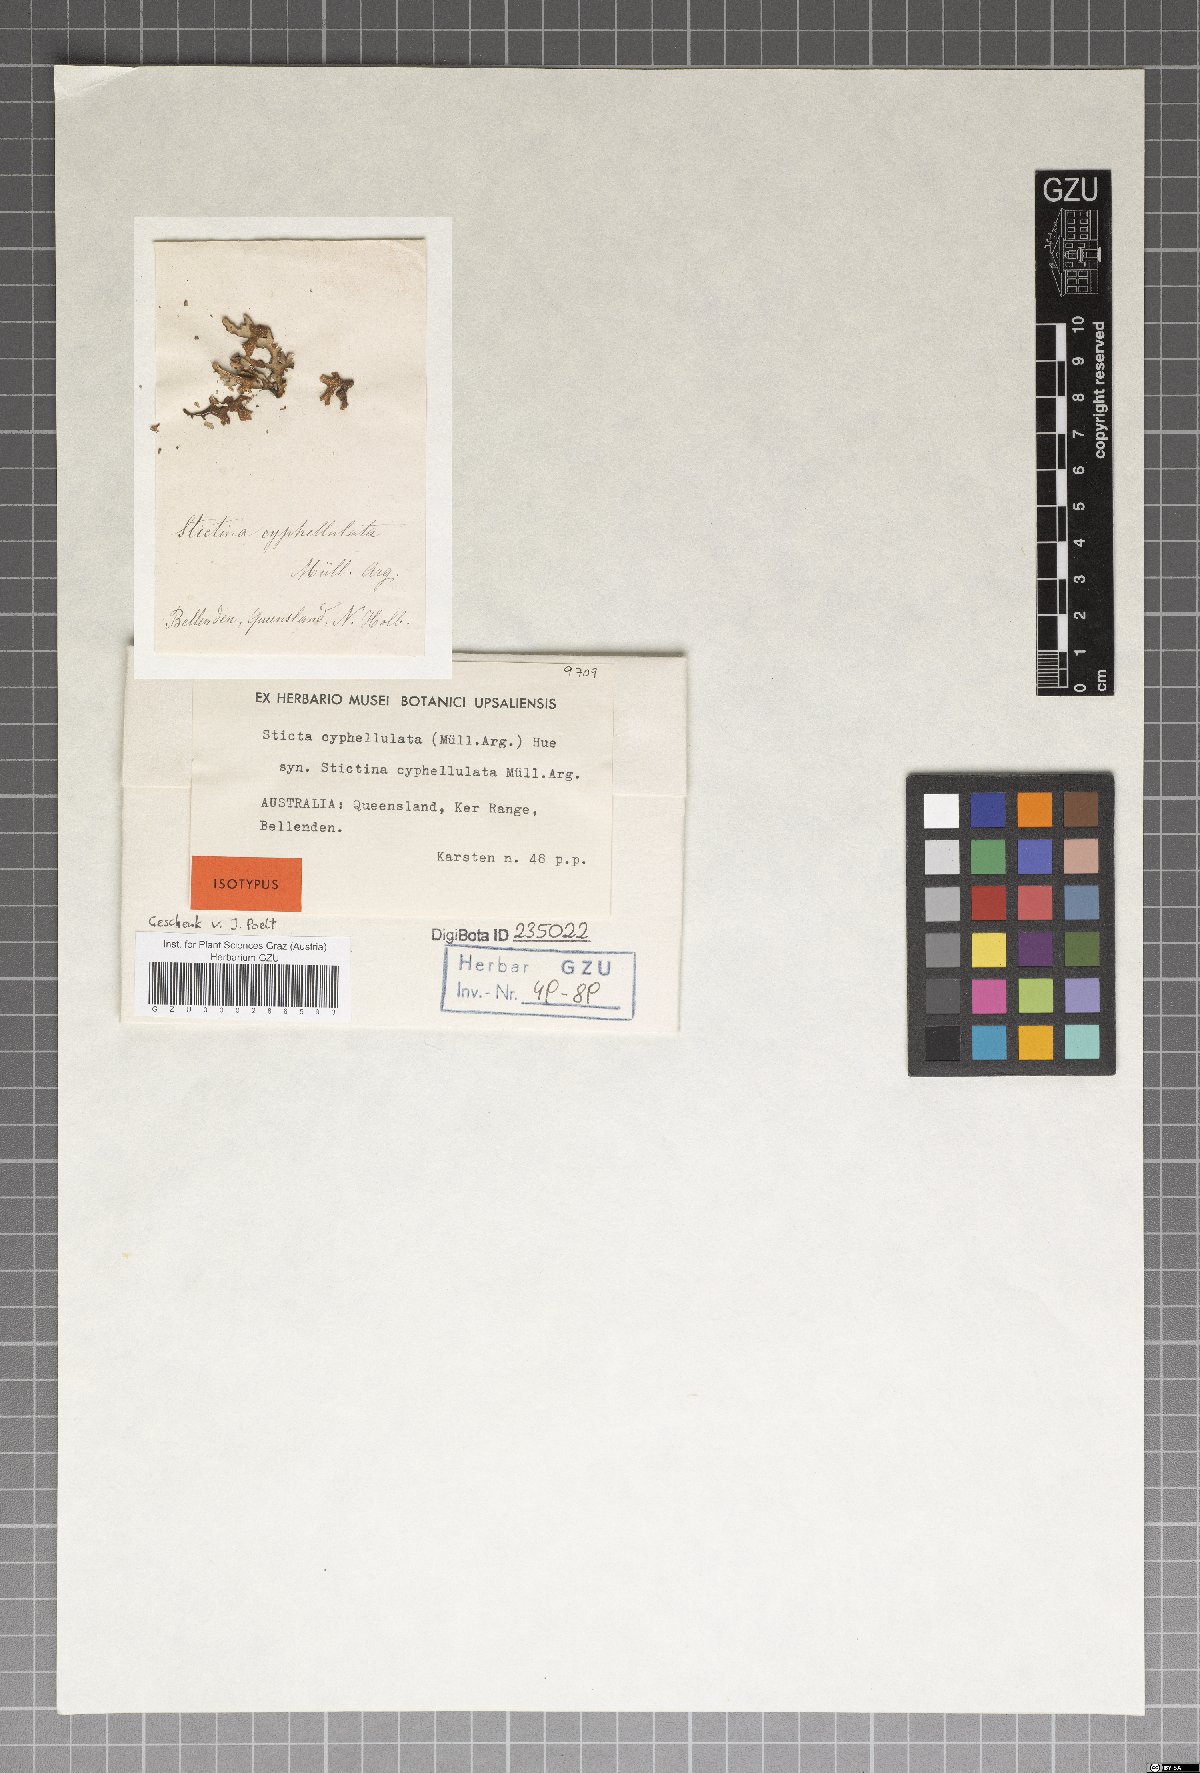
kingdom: Fungi
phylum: Ascomycota
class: Lecanoromycetes
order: Peltigerales
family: Lobariaceae
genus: Sticta
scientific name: Sticta cyphellulata
